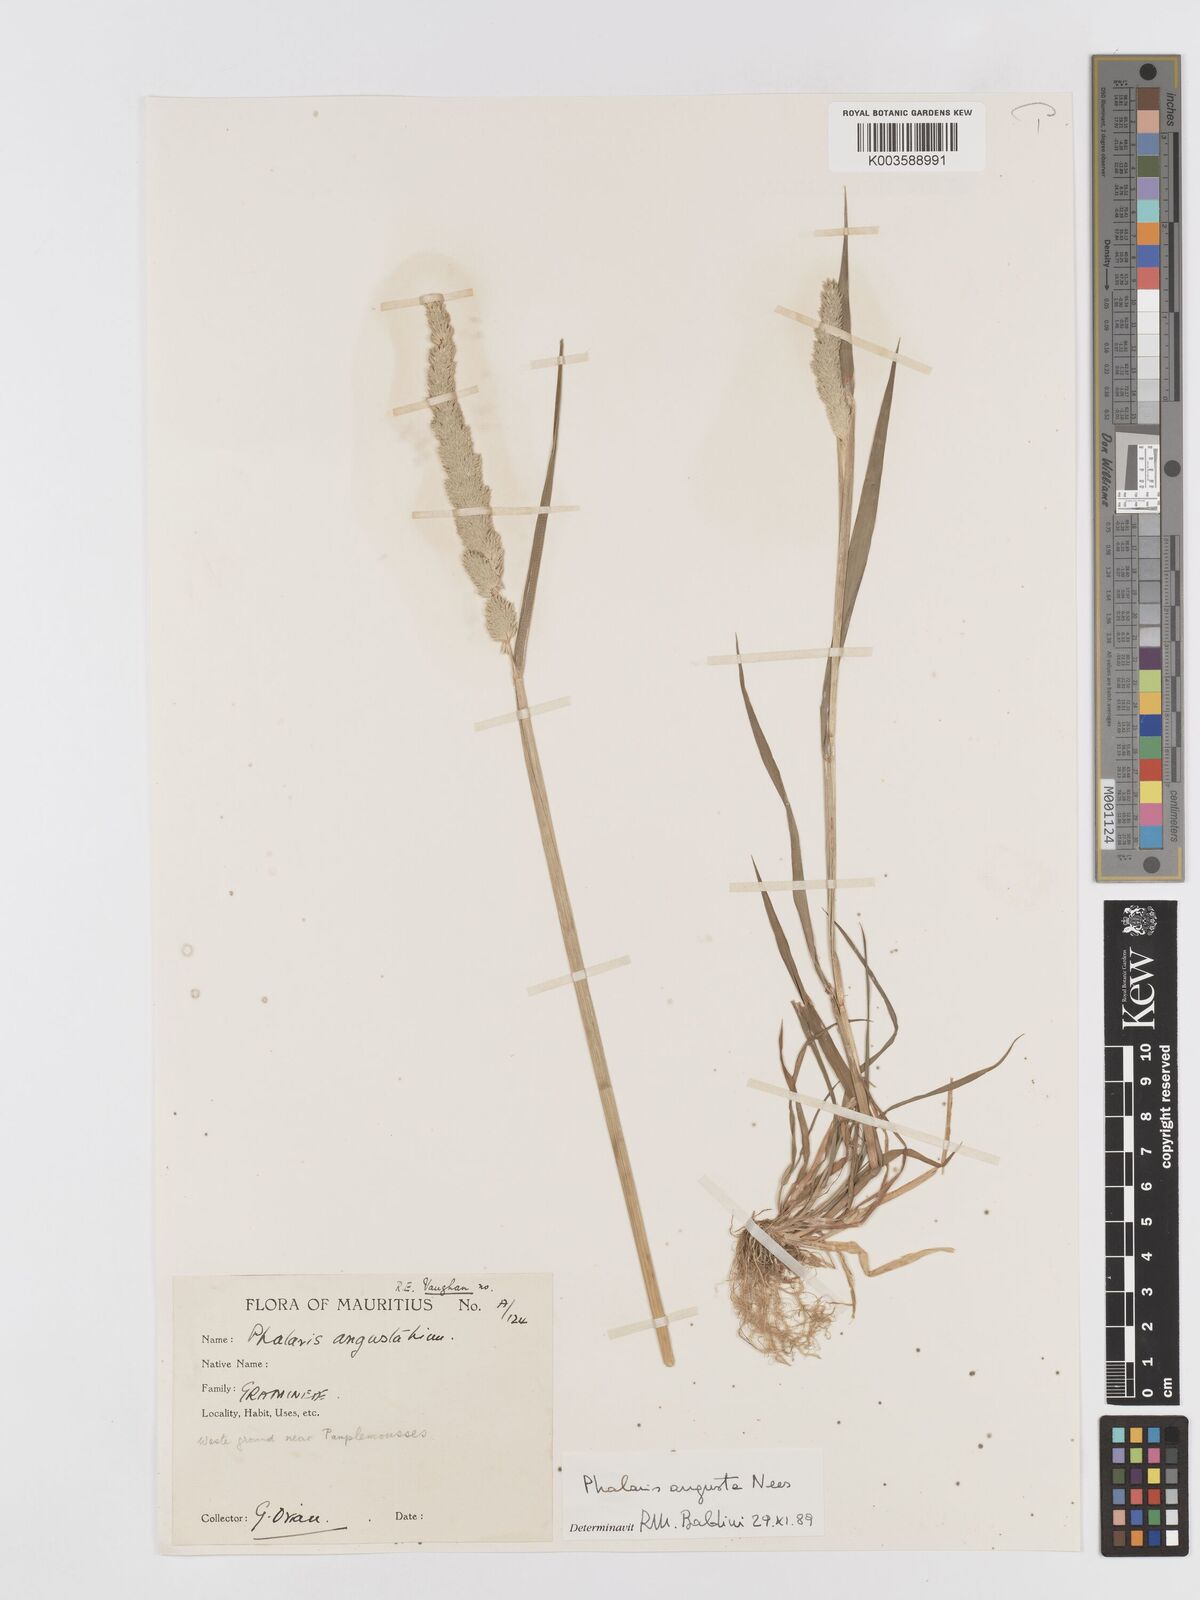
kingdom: Plantae
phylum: Tracheophyta
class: Liliopsida
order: Poales
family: Poaceae
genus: Phalaris
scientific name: Phalaris
